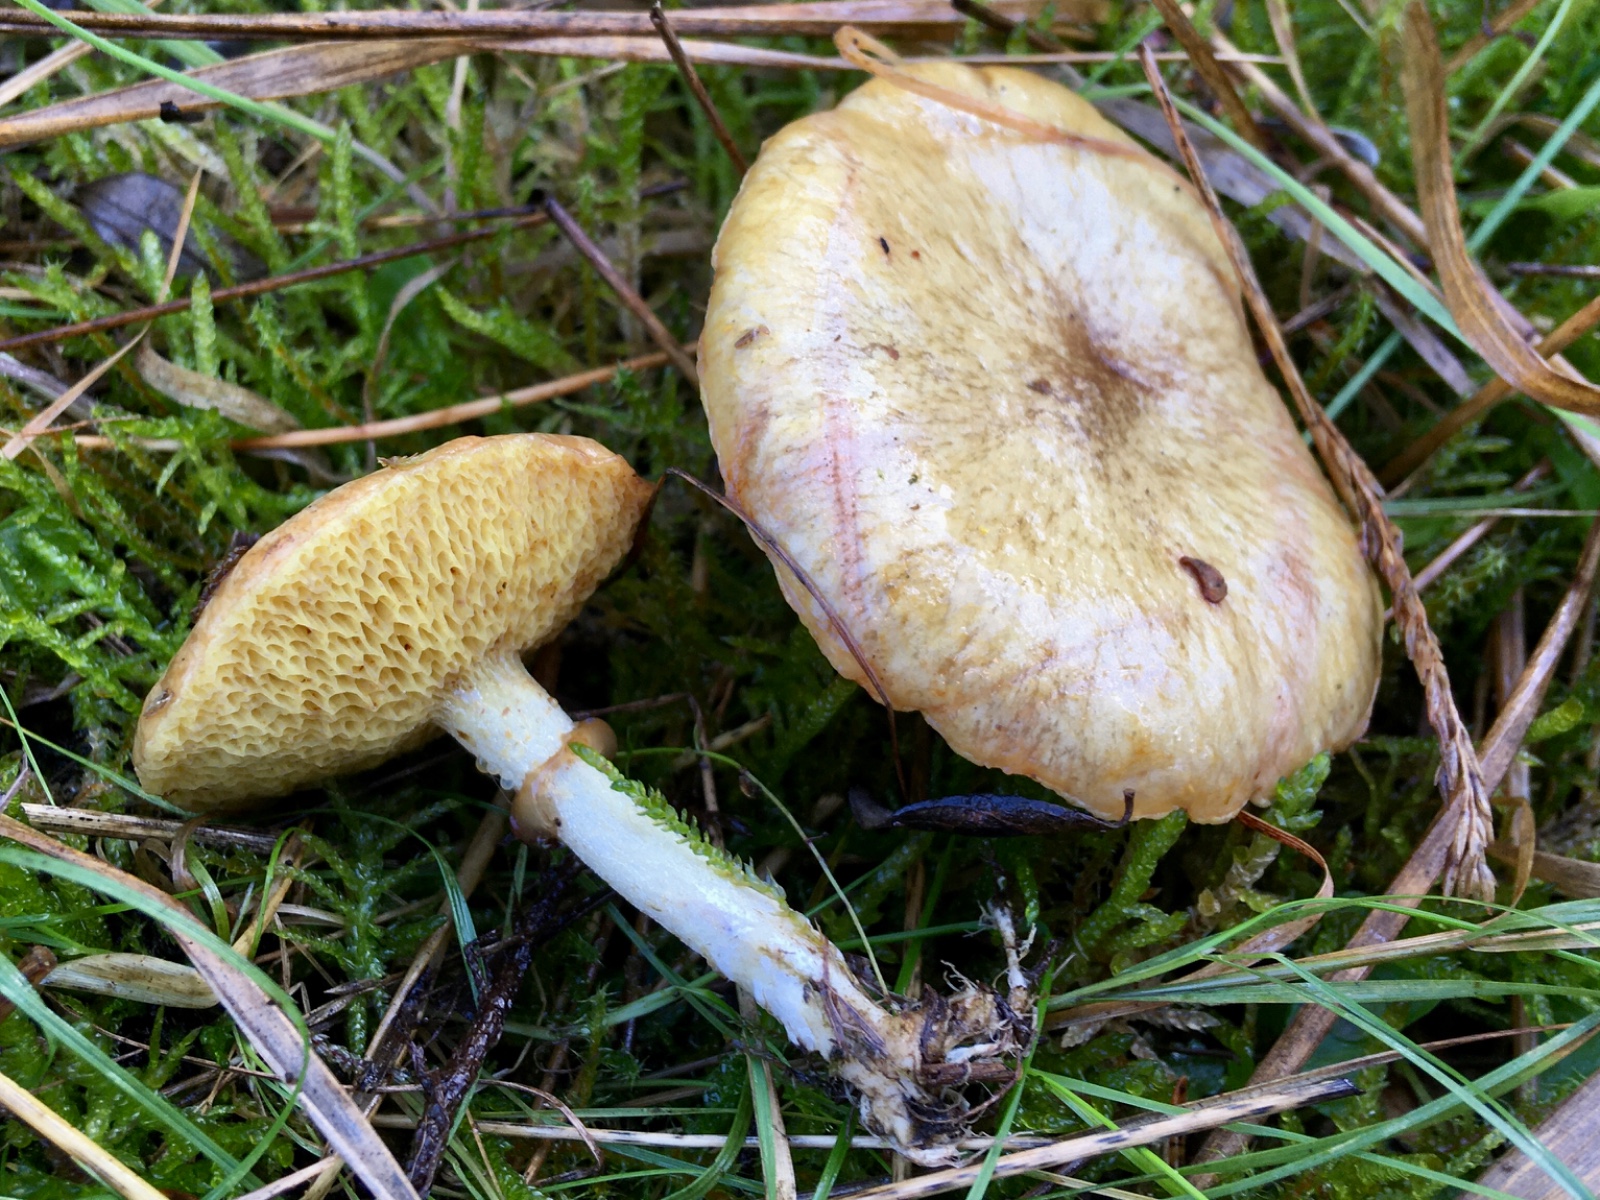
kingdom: Fungi
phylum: Basidiomycota
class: Agaricomycetes
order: Boletales
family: Suillaceae
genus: Suillus
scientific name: Suillus flavidus
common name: mose-slimrørhat
